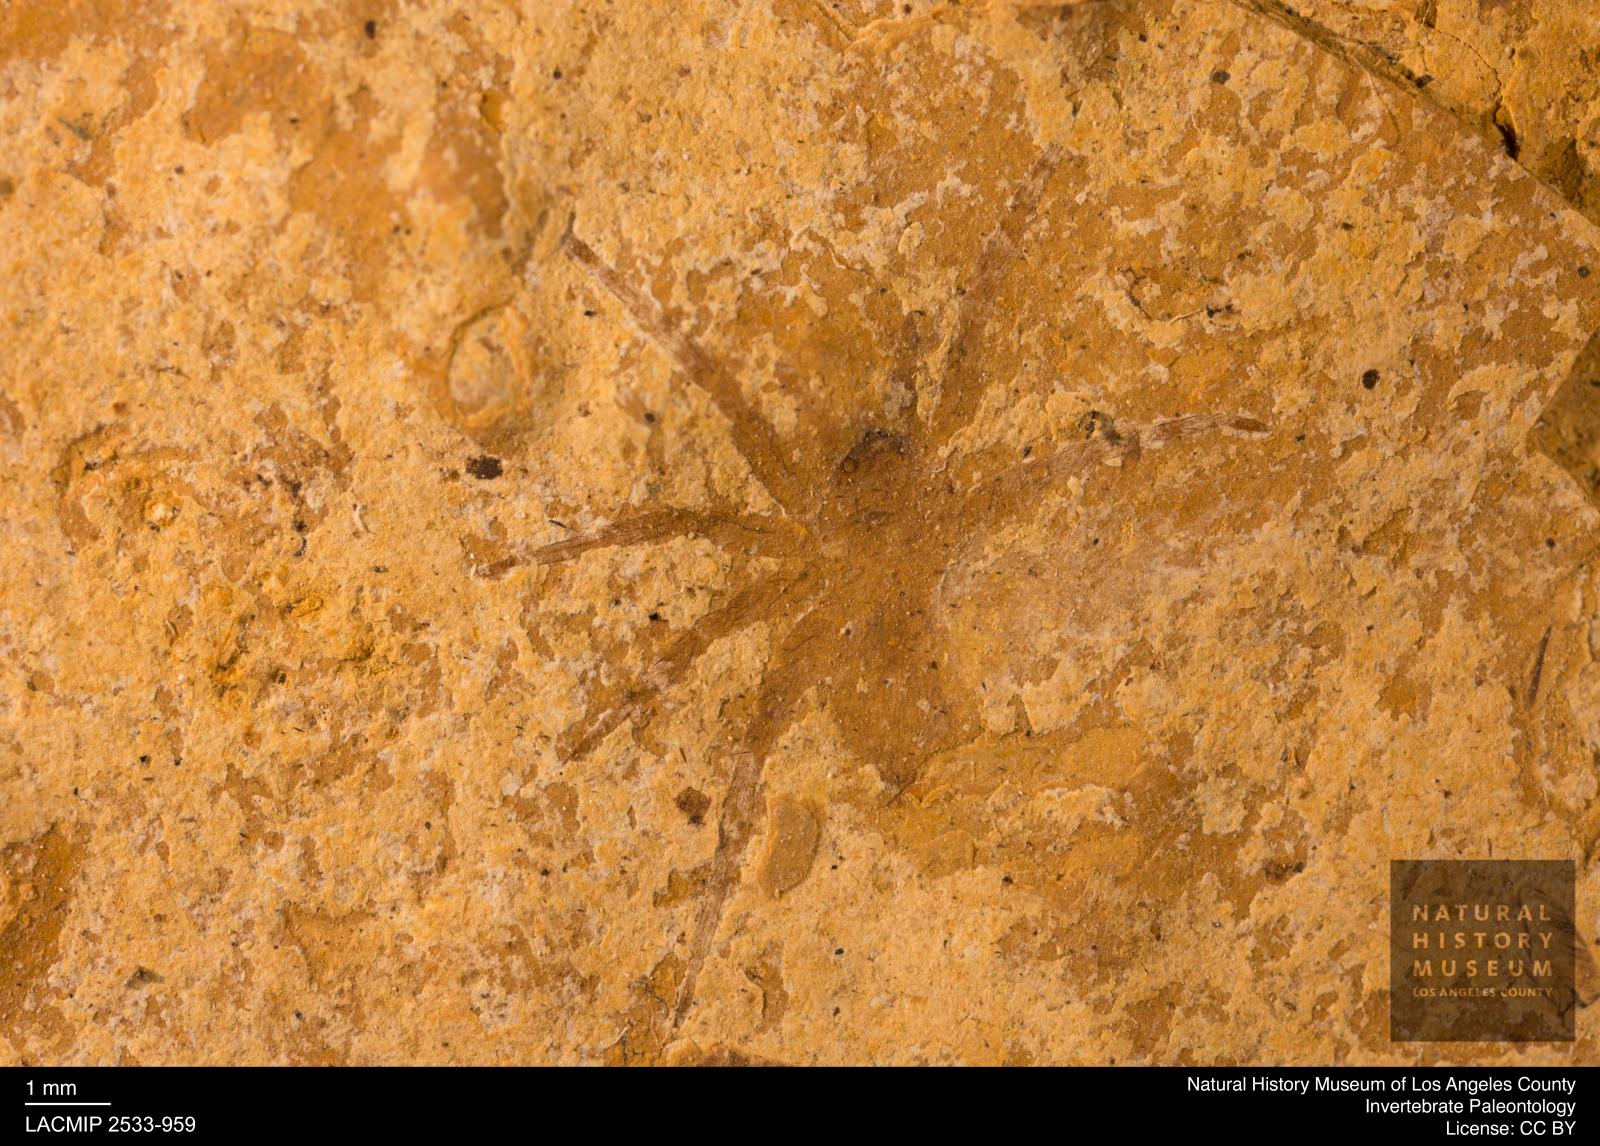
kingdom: Animalia
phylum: Arthropoda
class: Arachnida
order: Araneae
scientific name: Araneae
